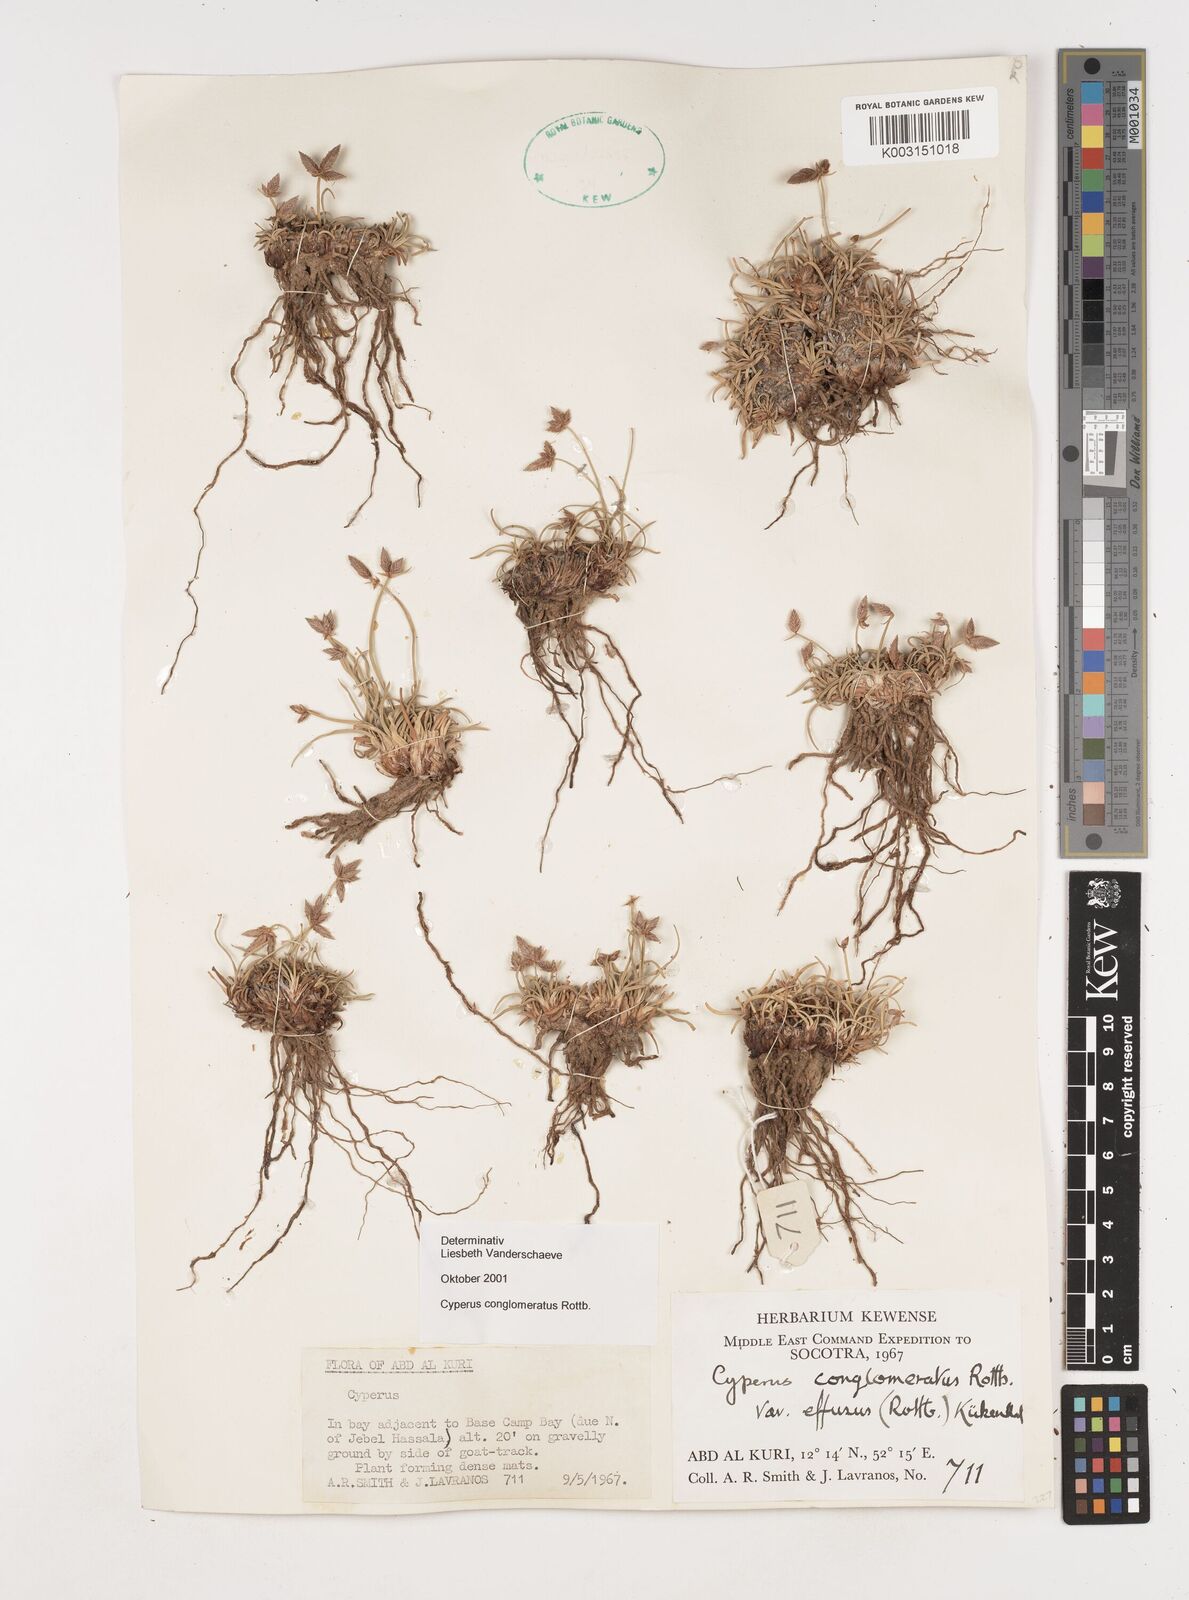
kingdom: Plantae
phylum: Tracheophyta
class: Liliopsida
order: Poales
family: Cyperaceae
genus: Cyperus
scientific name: Cyperus conglomeratus
